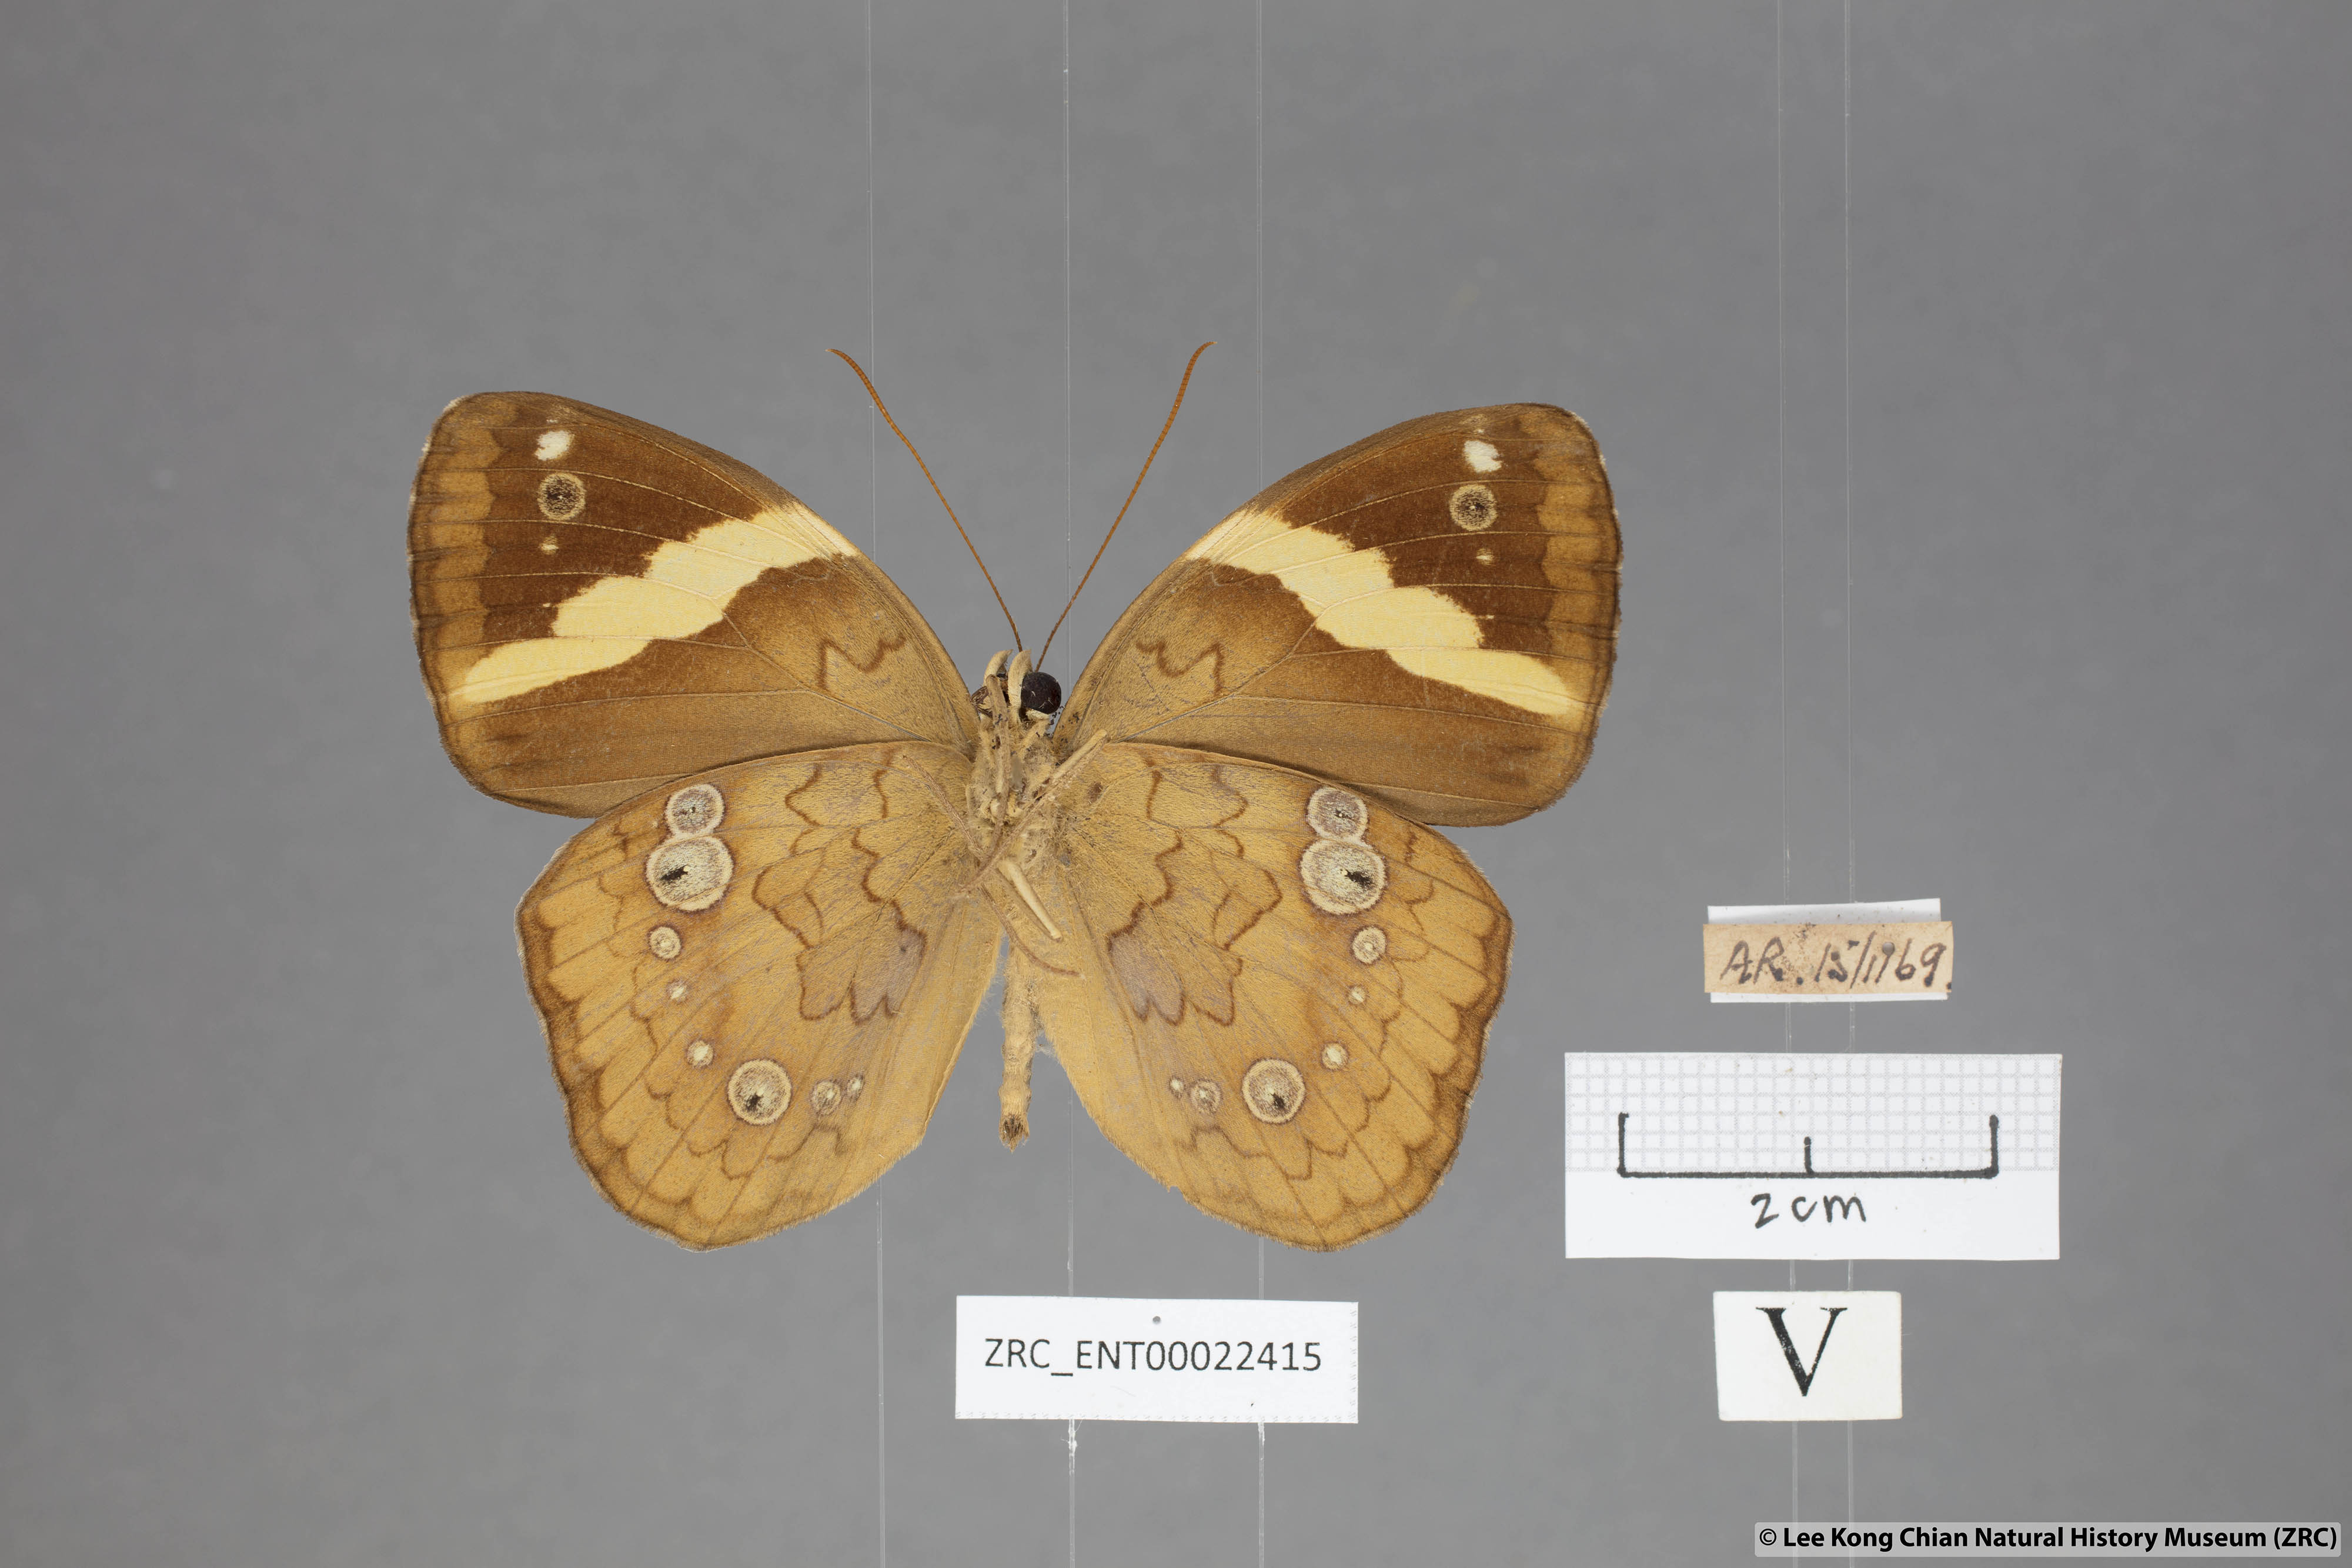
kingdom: Animalia
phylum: Arthropoda
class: Insecta
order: Lepidoptera
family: Nymphalidae
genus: Xanthotaenia
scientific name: Xanthotaenia busiris
